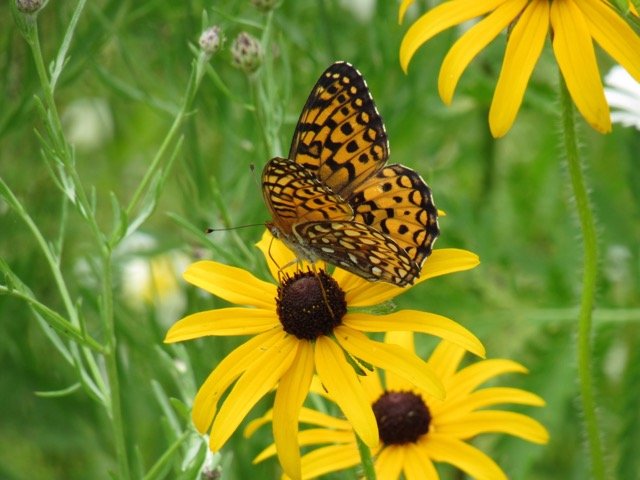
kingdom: Animalia
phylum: Arthropoda
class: Insecta
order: Lepidoptera
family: Nymphalidae
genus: Speyeria
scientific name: Speyeria atlantis
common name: Atlantis Fritillary
